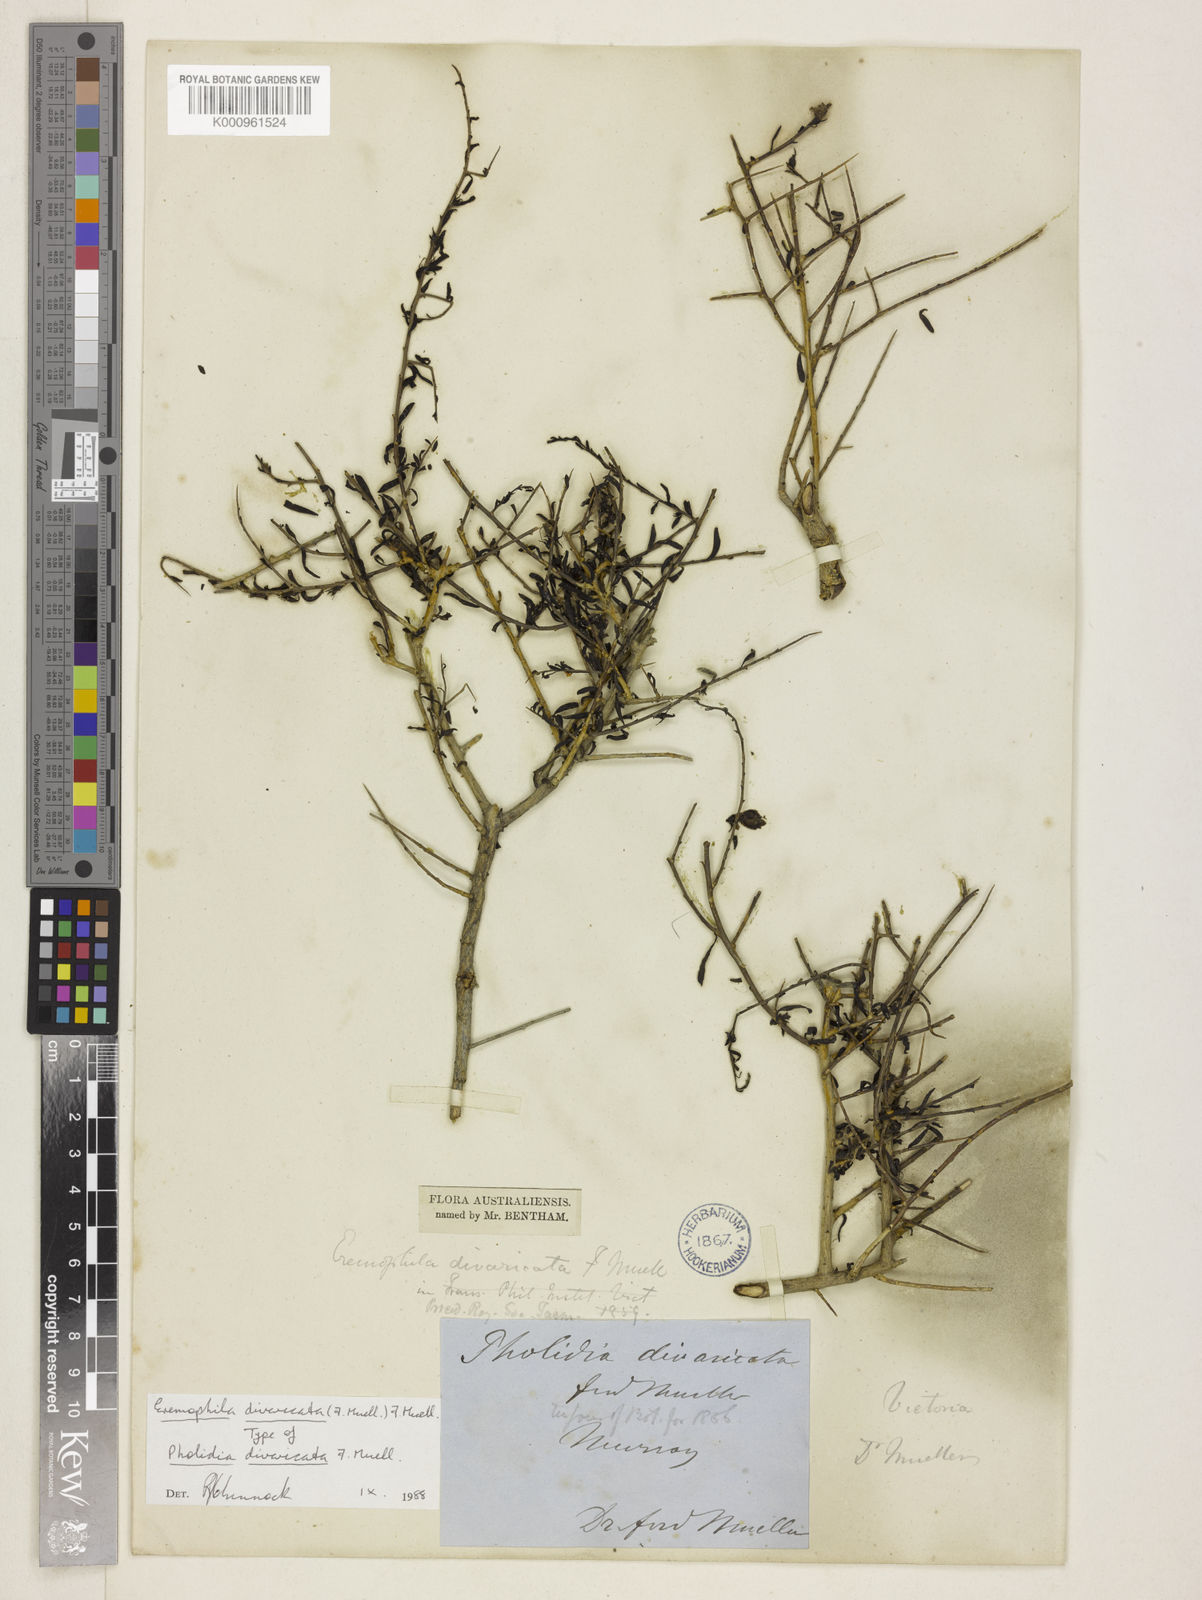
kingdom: Plantae
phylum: Tracheophyta
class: Magnoliopsida
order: Lamiales
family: Scrophulariaceae
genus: Eremophila
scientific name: Eremophila divaricata
